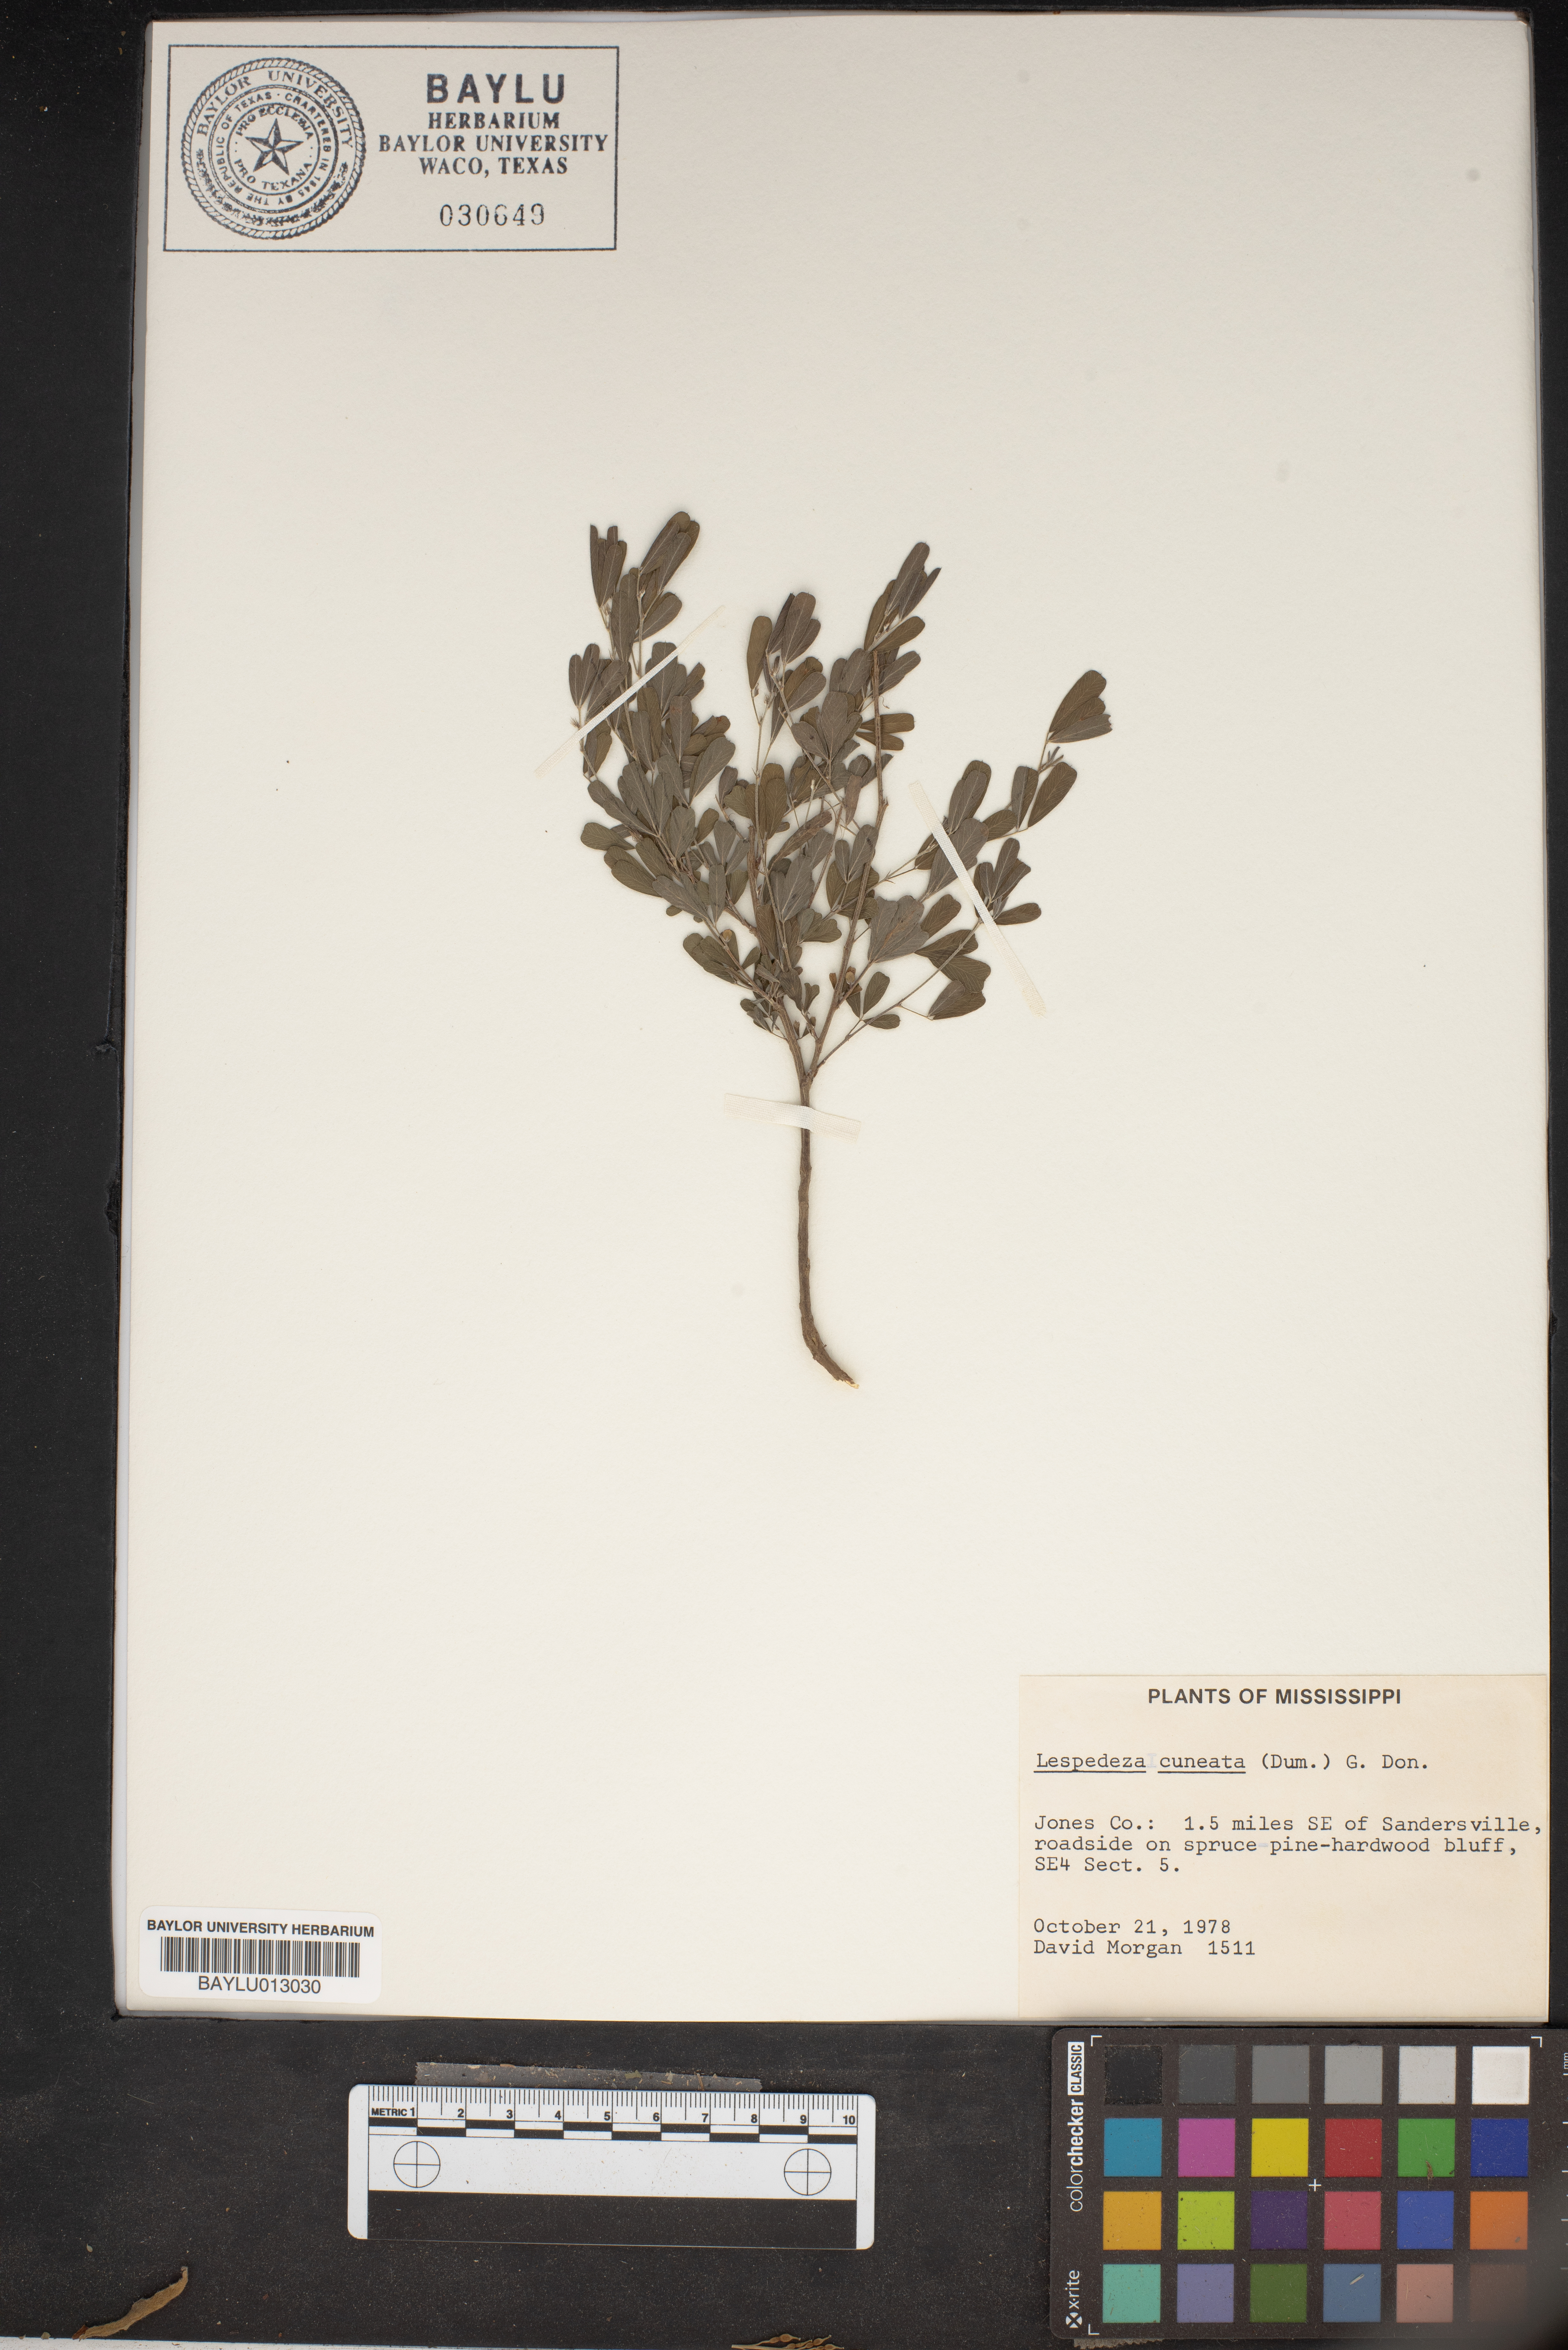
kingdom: Plantae
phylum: Tracheophyta
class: Magnoliopsida
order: Fabales
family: Fabaceae
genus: Lespedeza
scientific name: Lespedeza cuneata
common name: Chinese bush-clover
